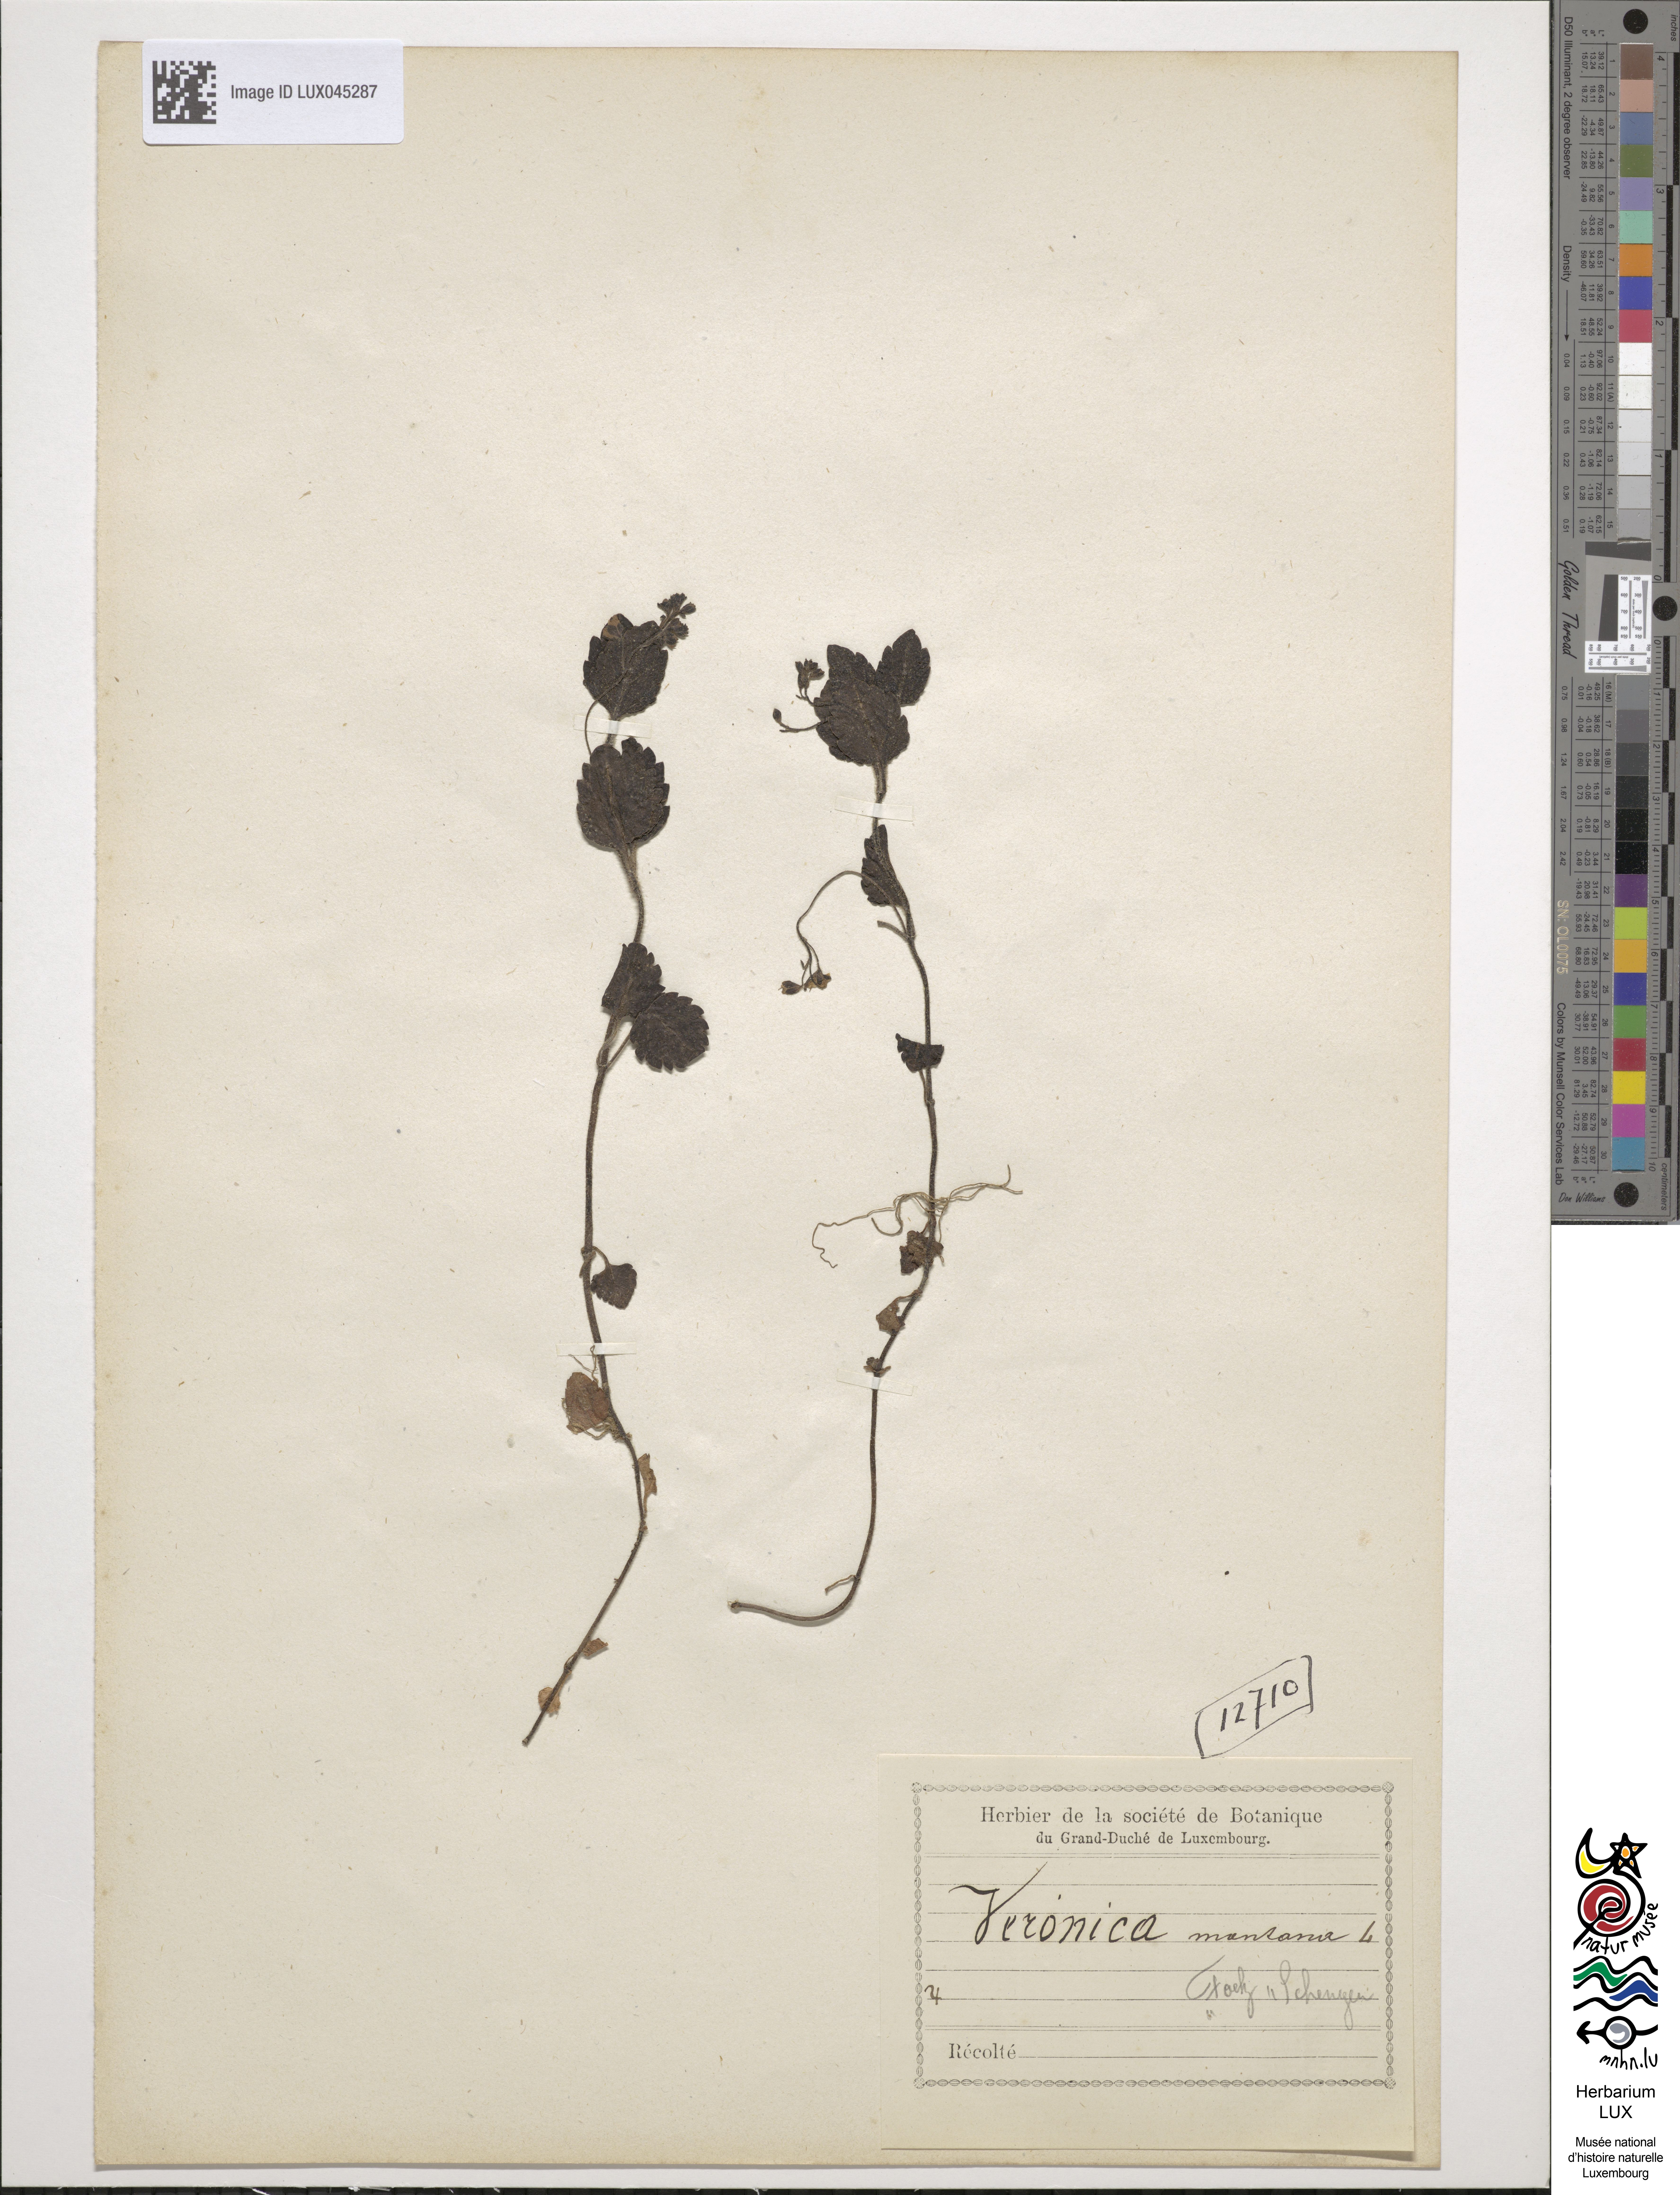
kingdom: Plantae
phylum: Tracheophyta
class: Magnoliopsida
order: Lamiales
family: Plantaginaceae
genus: Veronica
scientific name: Veronica montana
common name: Wood speedwell
